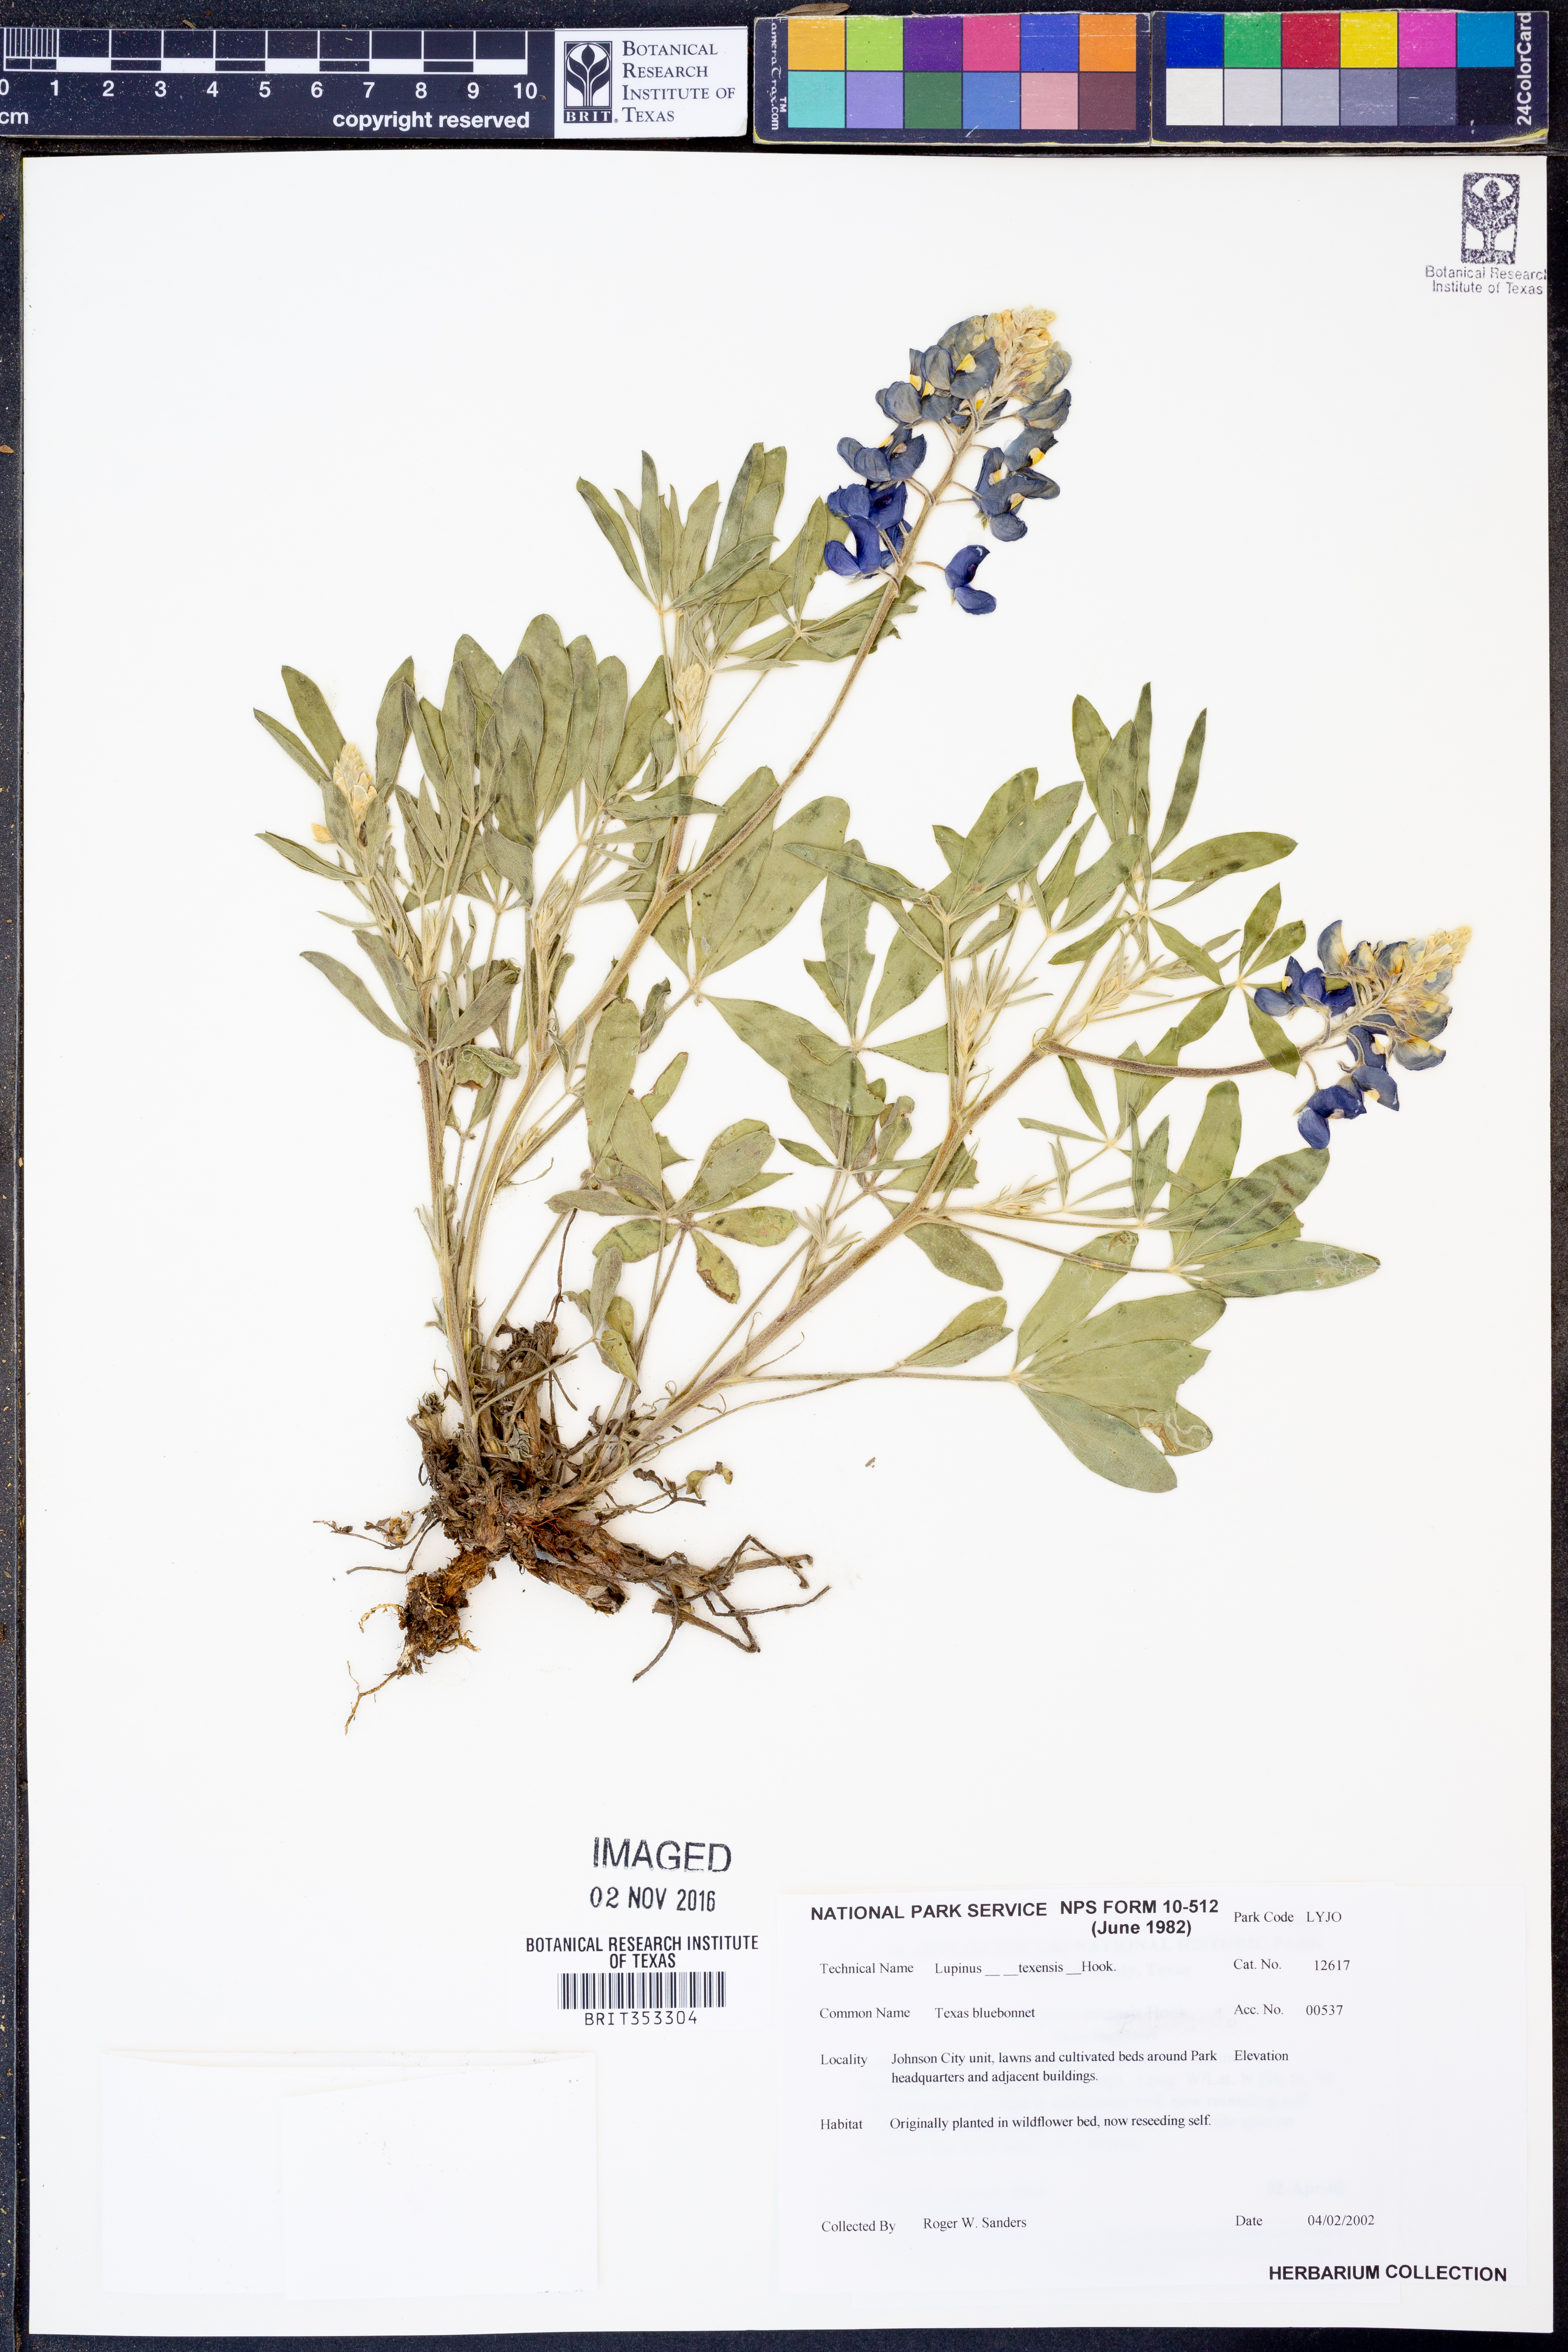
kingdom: Plantae
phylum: Tracheophyta
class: Magnoliopsida
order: Fabales
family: Fabaceae
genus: Lupinus
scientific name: Lupinus texensis
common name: Texas bluebonnet
